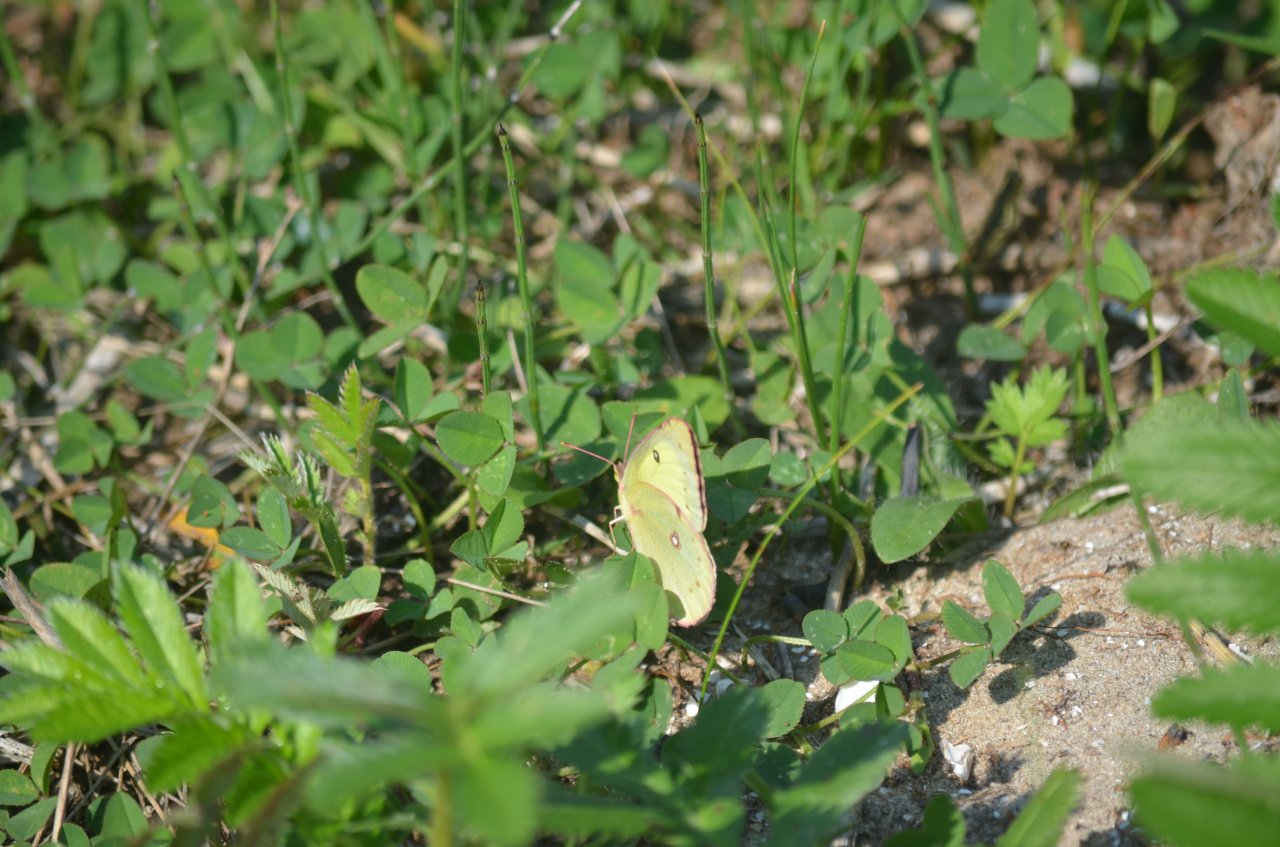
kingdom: Animalia
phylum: Arthropoda
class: Insecta
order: Lepidoptera
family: Pieridae
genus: Colias
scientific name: Colias philodice
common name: Clouded Sulphur
